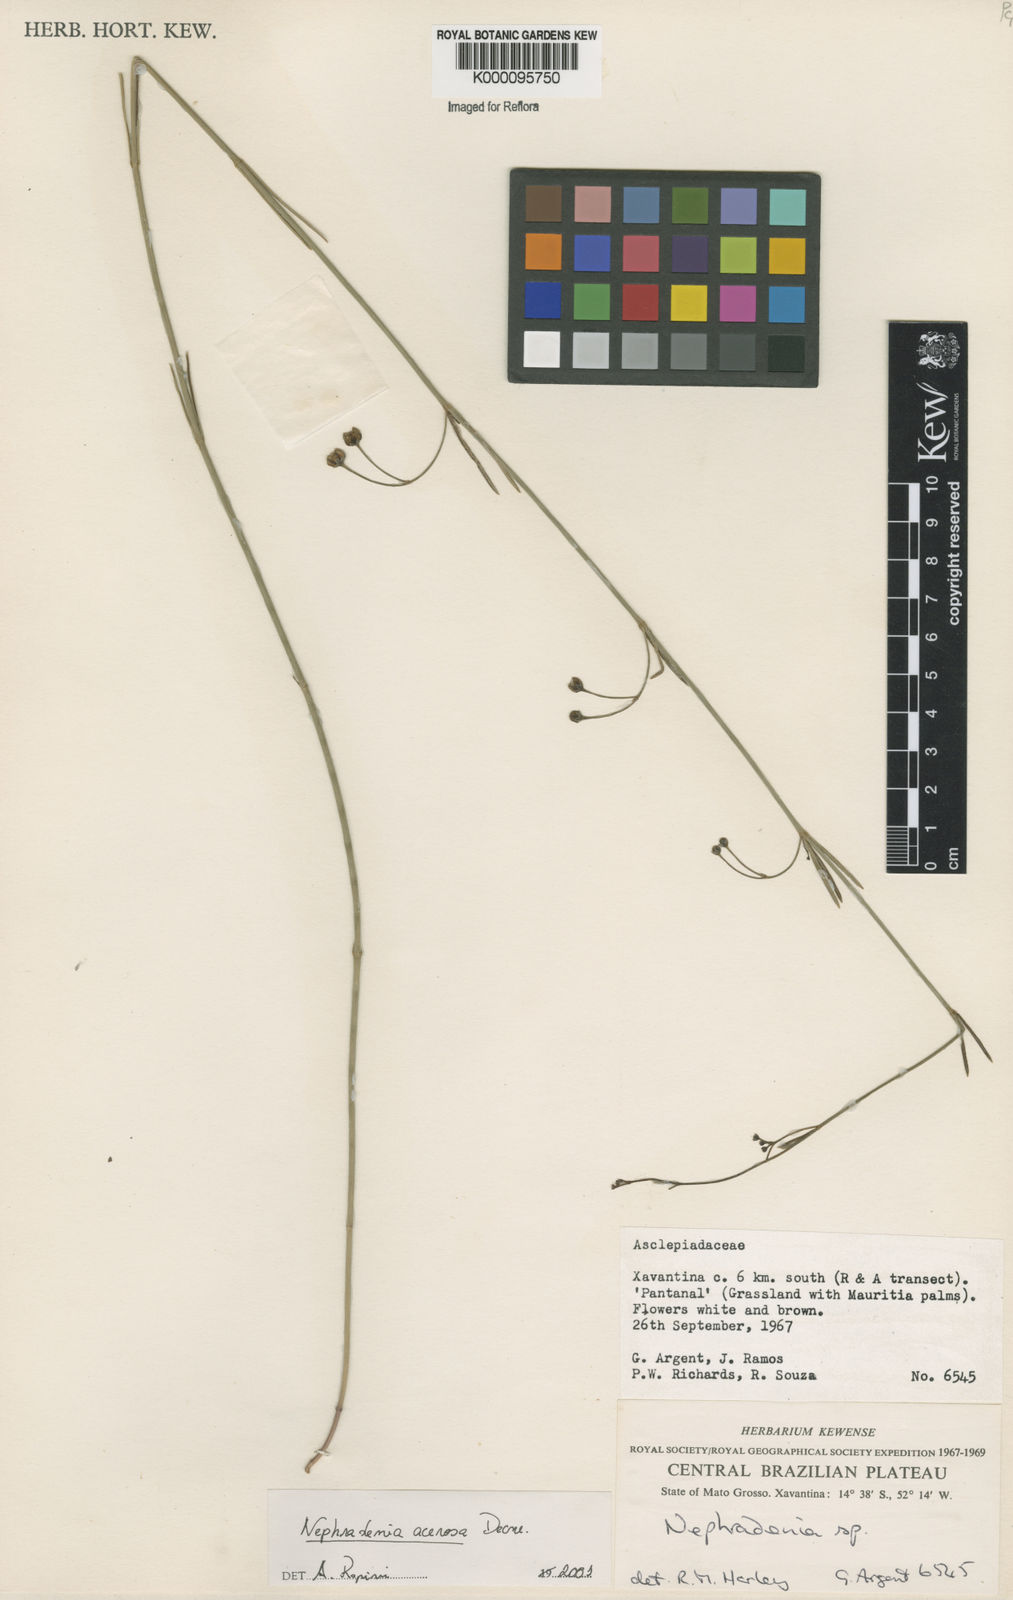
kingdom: Plantae
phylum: Tracheophyta
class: Magnoliopsida
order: Gentianales
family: Apocynaceae
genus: Nephradenia
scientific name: Nephradenia acerosa
